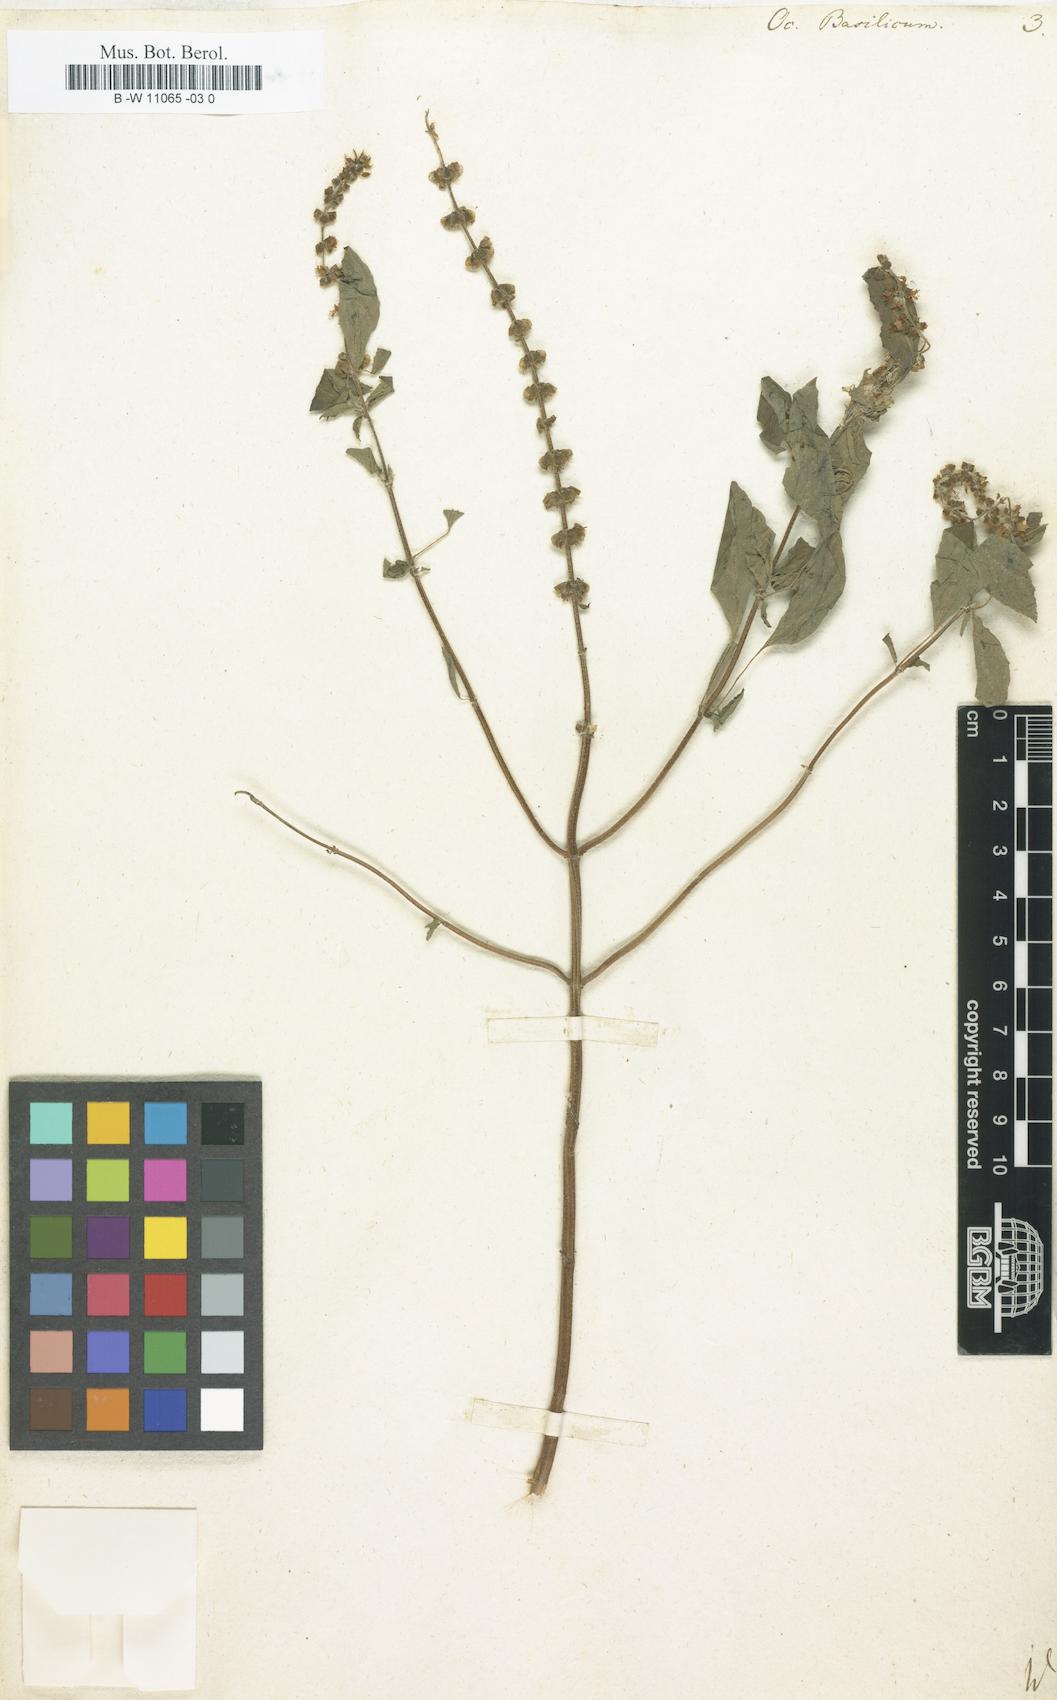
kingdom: Plantae
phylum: Tracheophyta
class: Magnoliopsida
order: Lamiales
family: Lamiaceae
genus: Ocimum
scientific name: Ocimum basilicum
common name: Sweet basil
